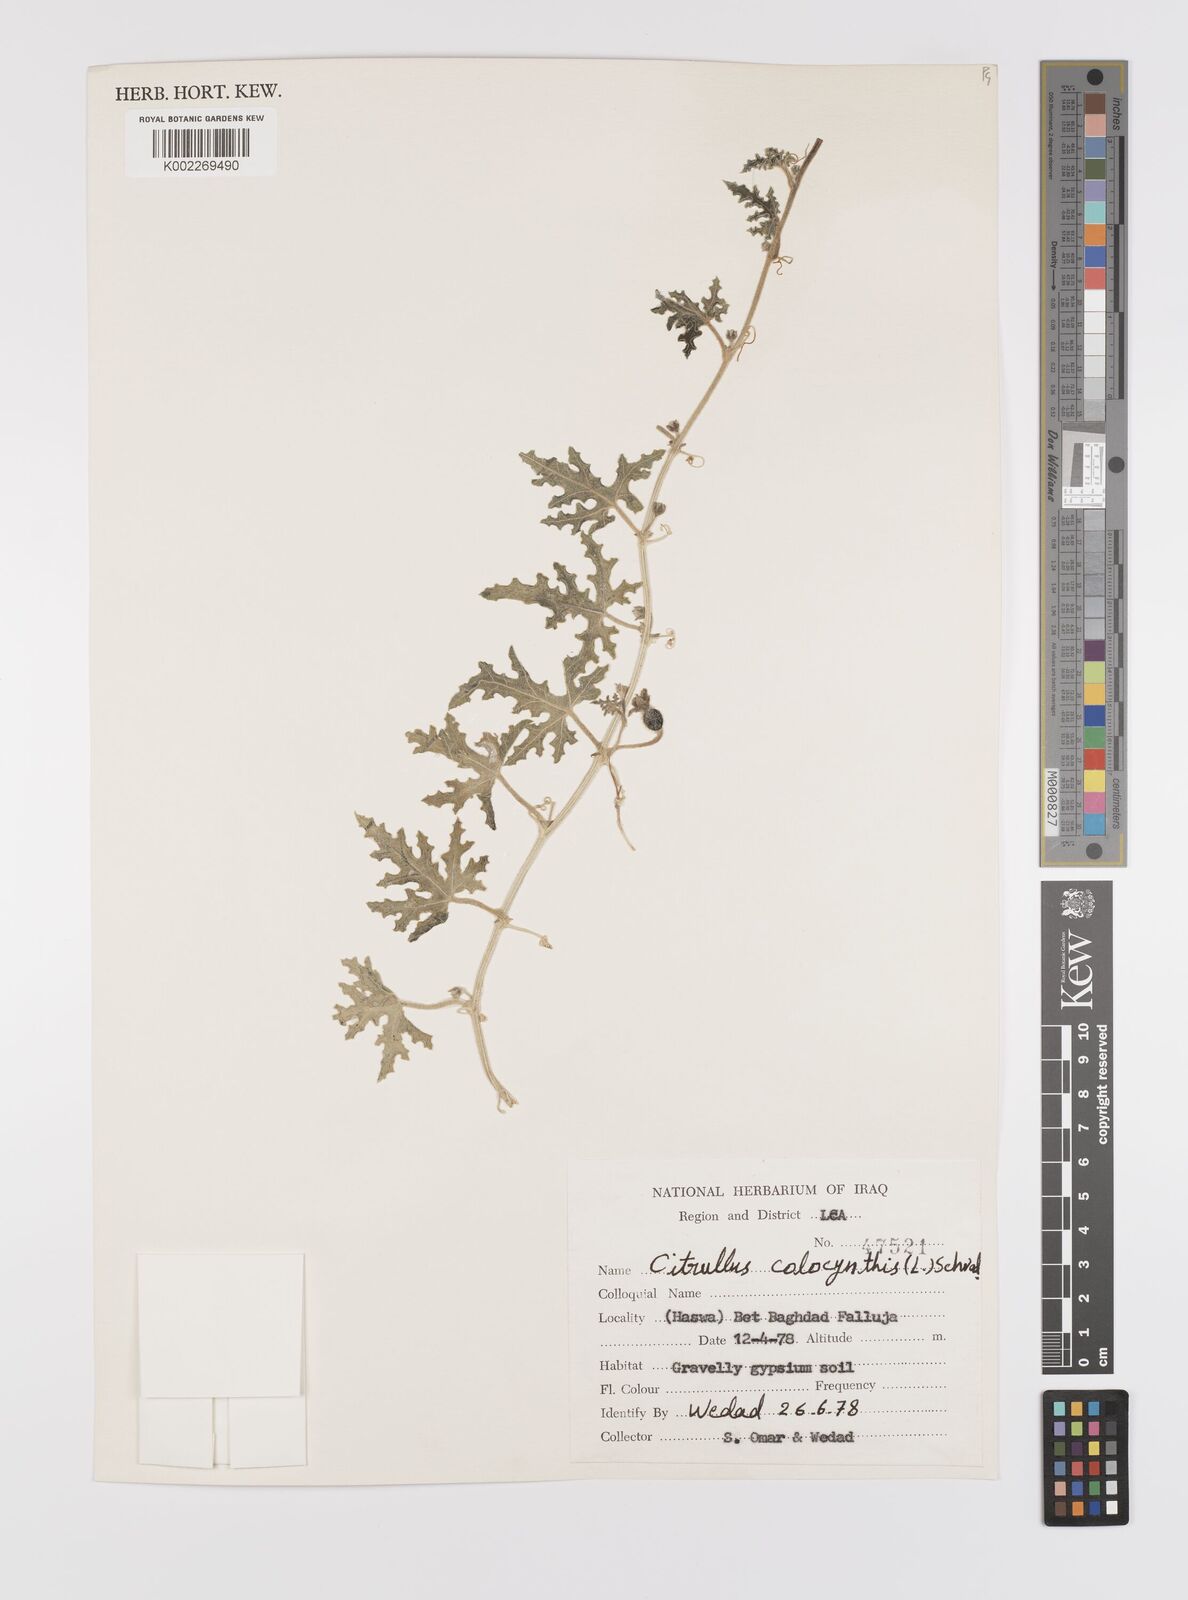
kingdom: Plantae
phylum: Tracheophyta
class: Magnoliopsida
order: Cucurbitales
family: Cucurbitaceae
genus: Citrullus
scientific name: Citrullus colocynthis
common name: Colocynth
